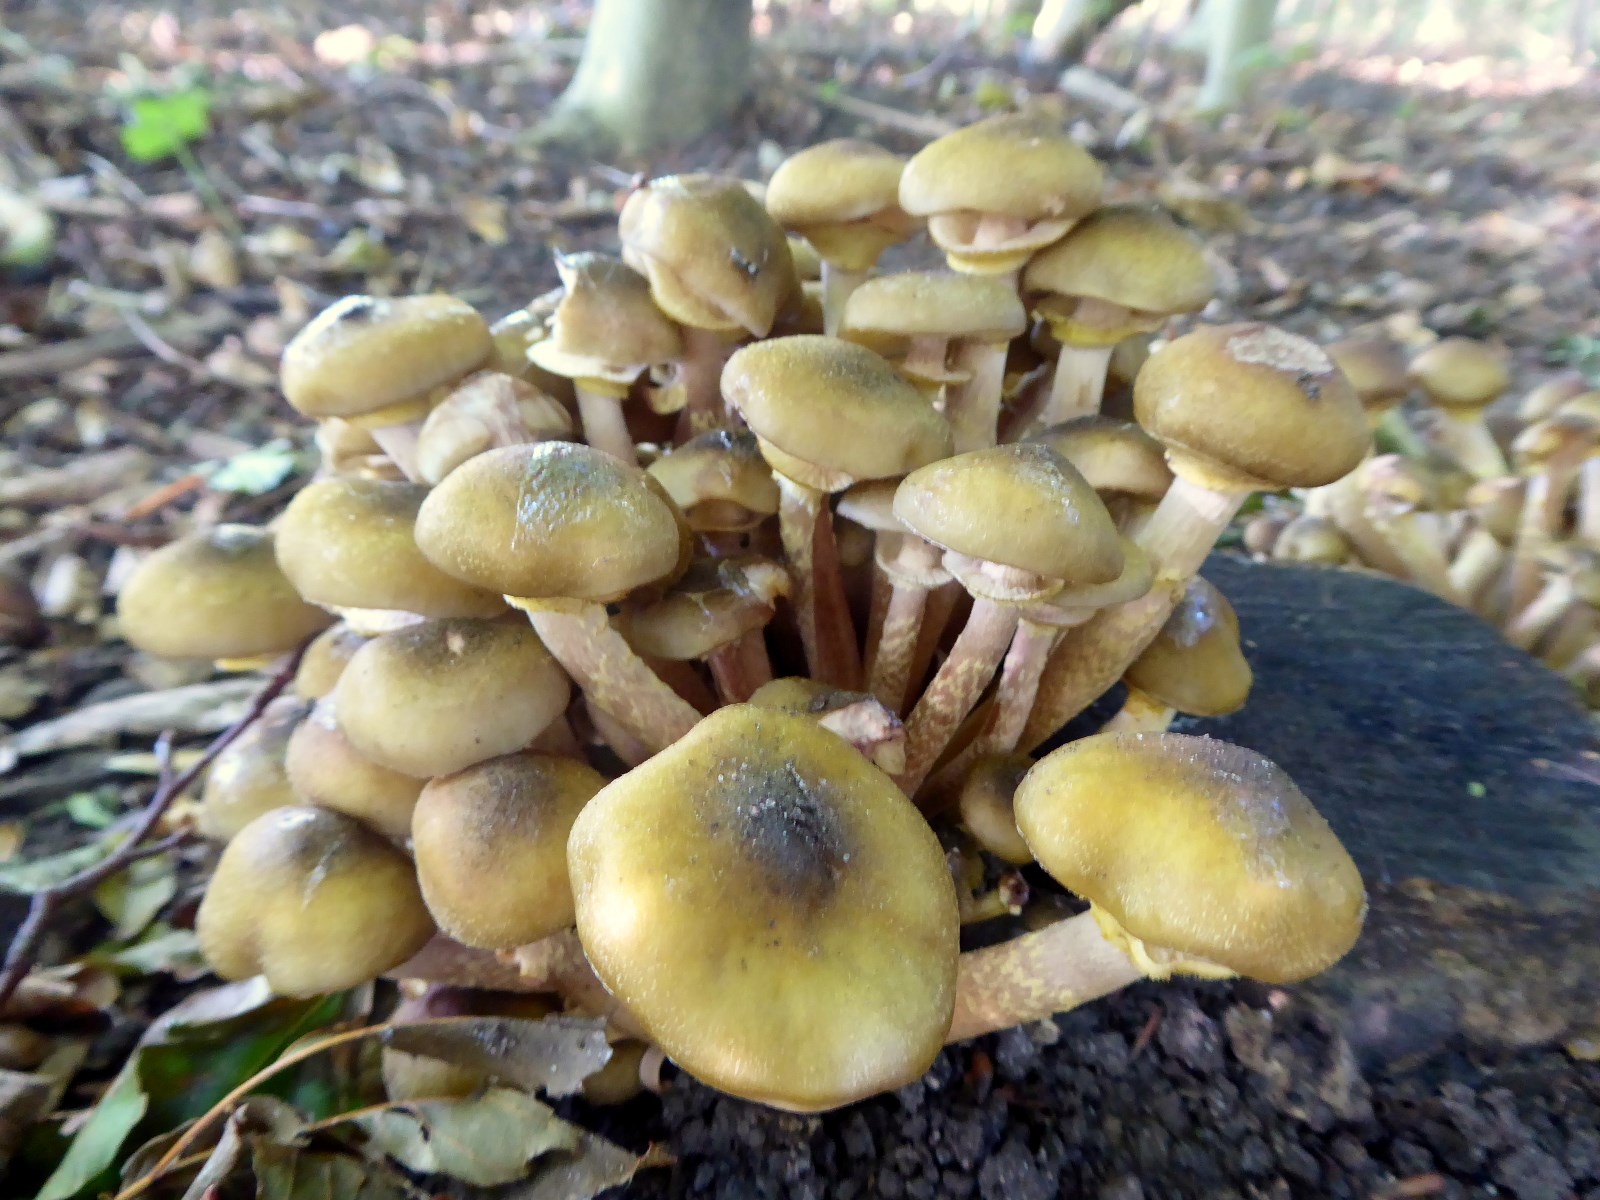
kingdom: Fungi
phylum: Basidiomycota
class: Agaricomycetes
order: Agaricales
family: Physalacriaceae
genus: Armillaria
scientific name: Armillaria mellea
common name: ægte honningsvamp
